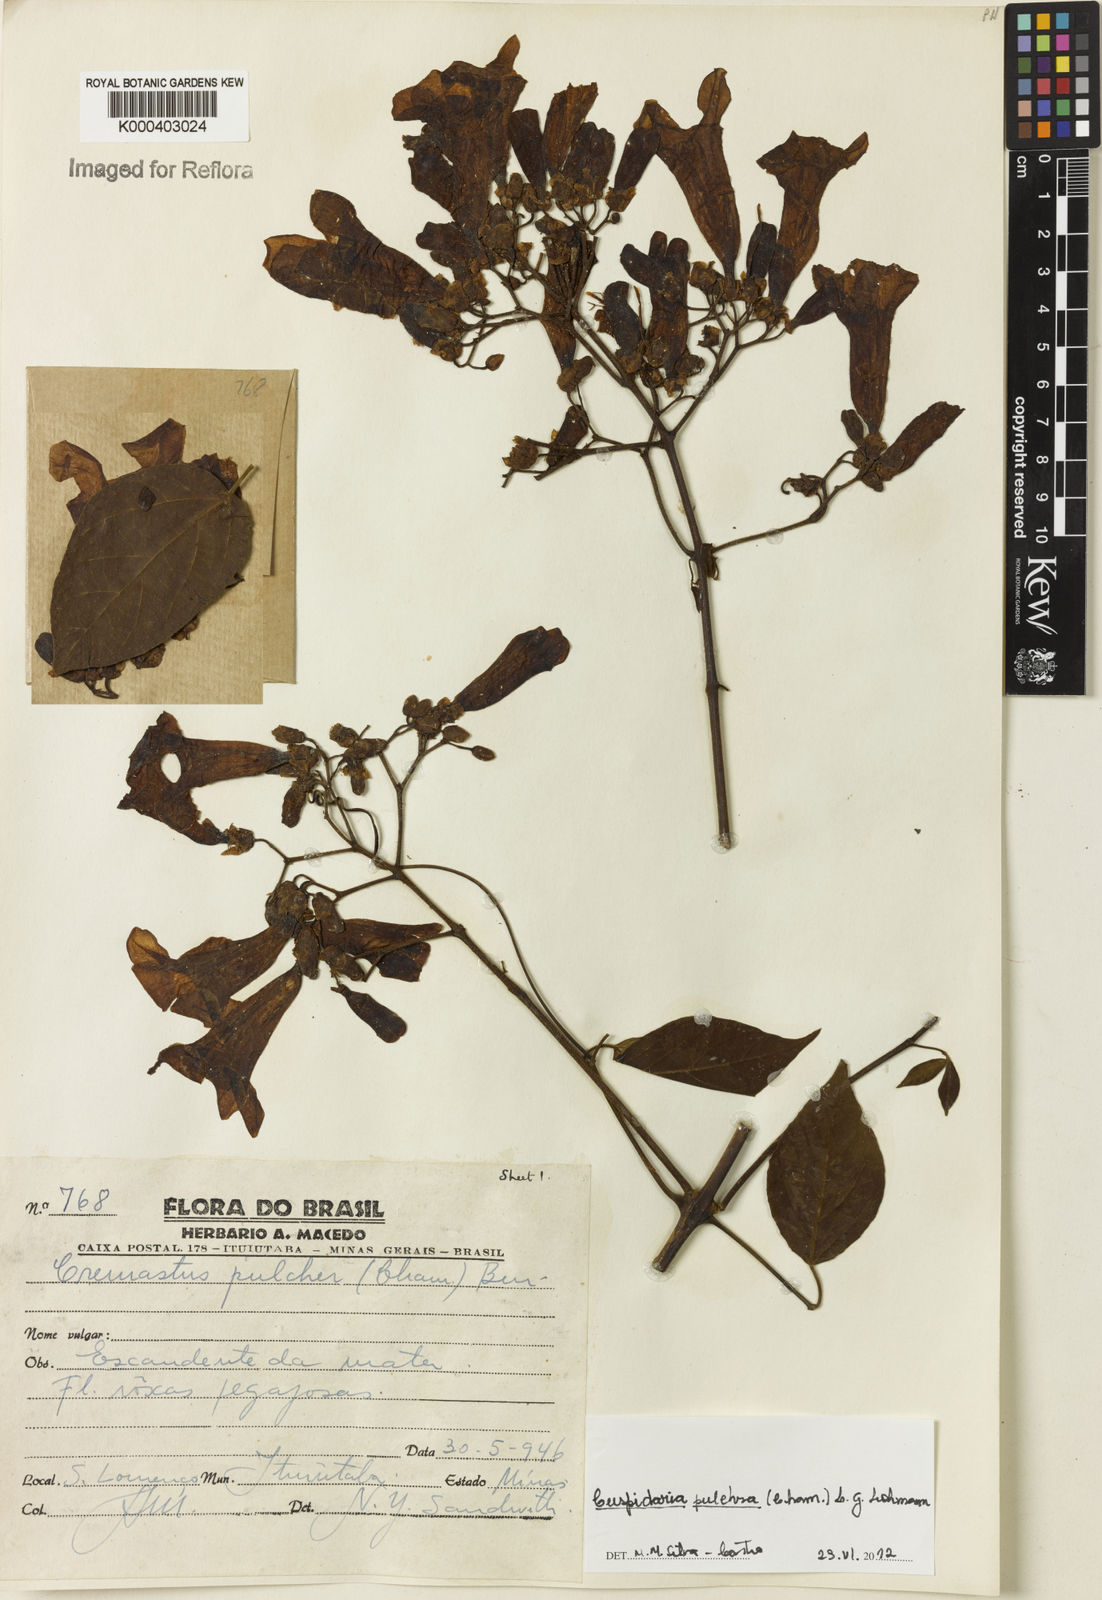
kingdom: Plantae
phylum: Tracheophyta
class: Magnoliopsida
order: Lamiales
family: Bignoniaceae
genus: Cuspidaria
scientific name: Cuspidaria pulchra
